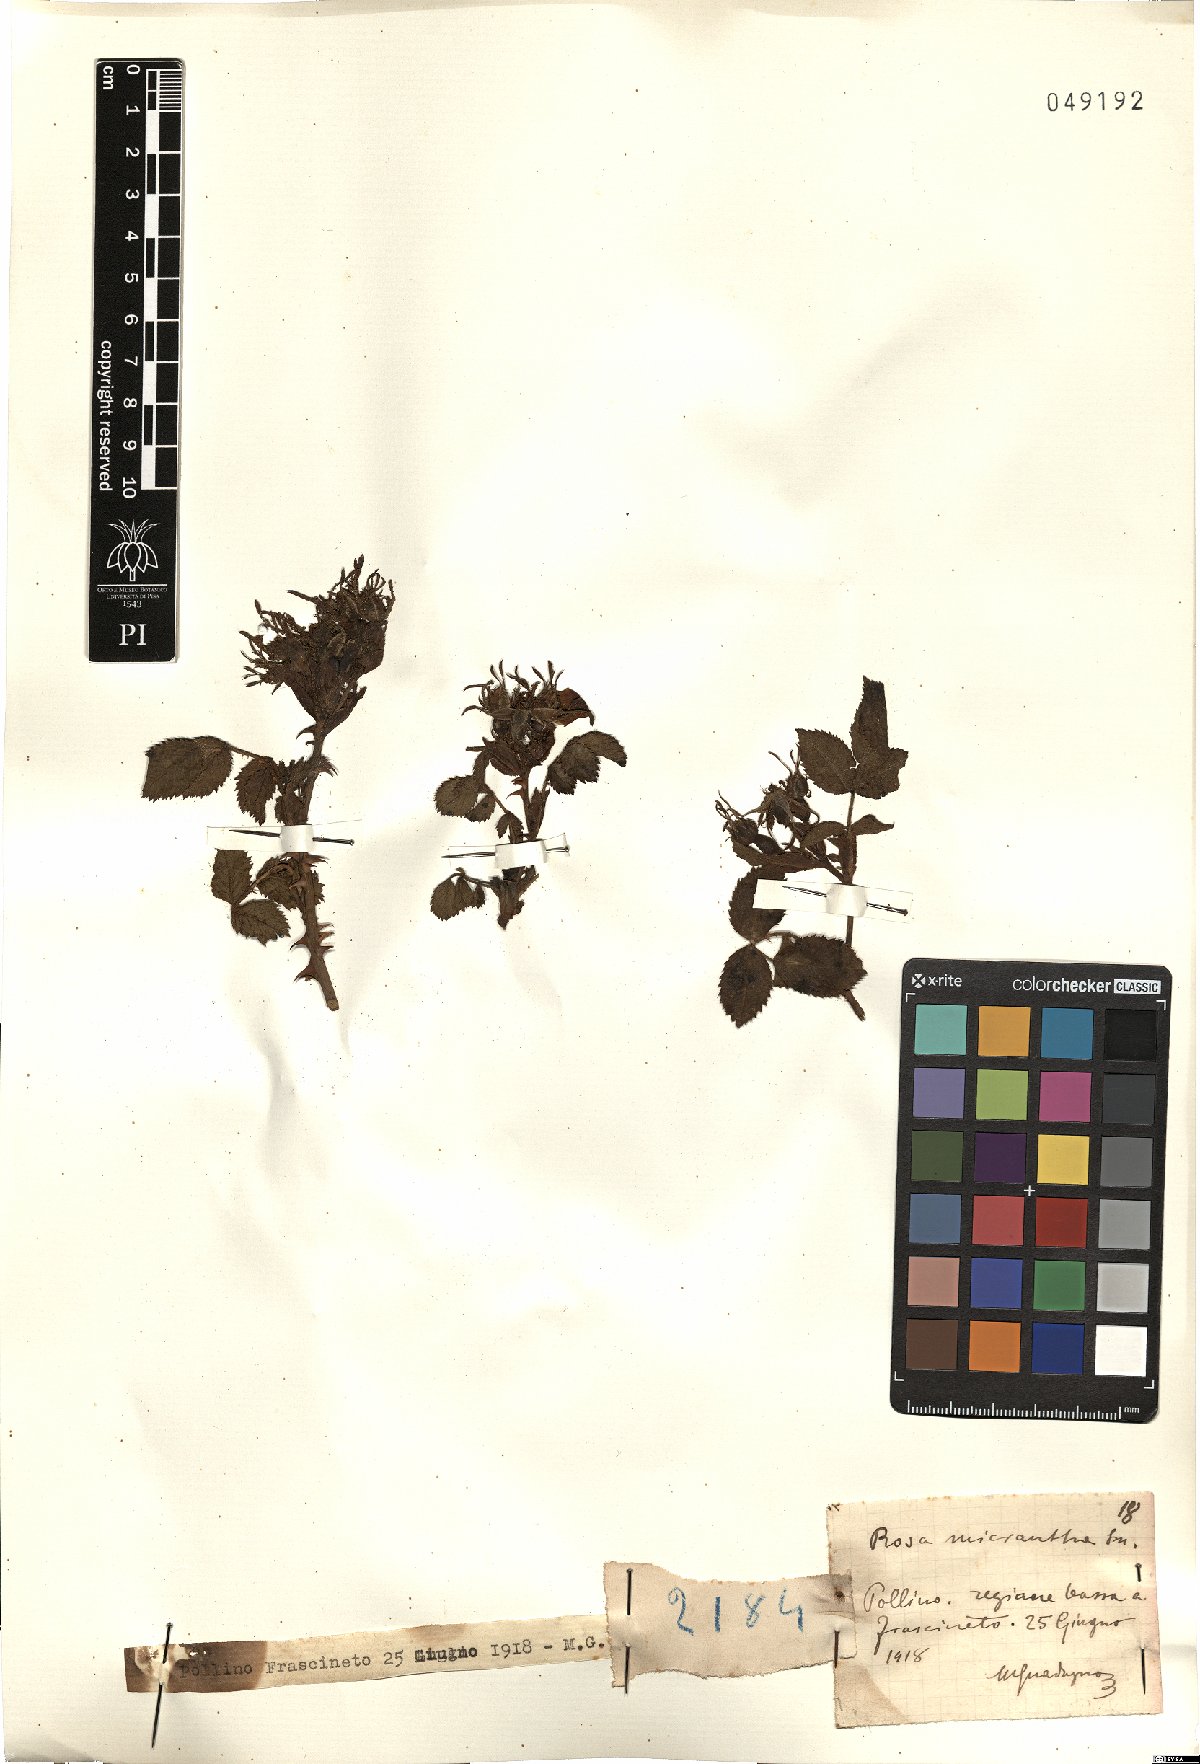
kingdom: Plantae
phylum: Tracheophyta
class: Magnoliopsida
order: Rosales
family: Rosaceae
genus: Rosa
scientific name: Rosa micrantha
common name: Small-flowered sweet-briar
